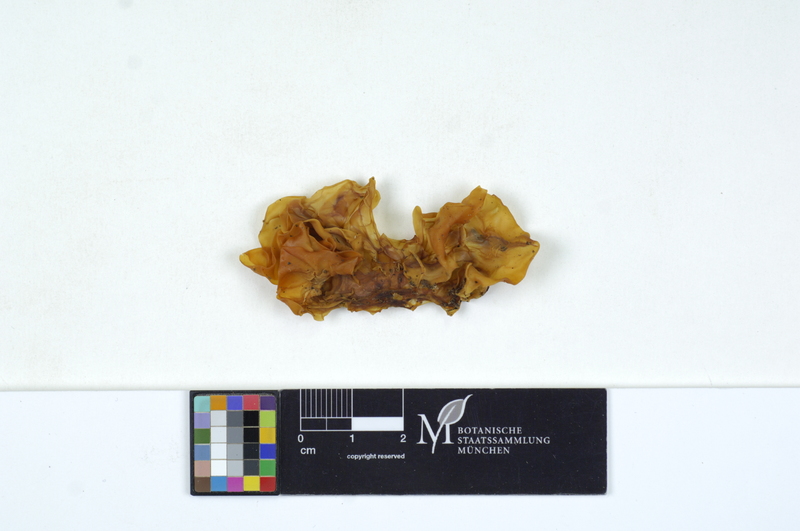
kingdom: Fungi
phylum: Basidiomycota
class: Tremellomycetes
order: Tremellales
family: Tremellaceae
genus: Tremella
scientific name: Tremella mesenterica
